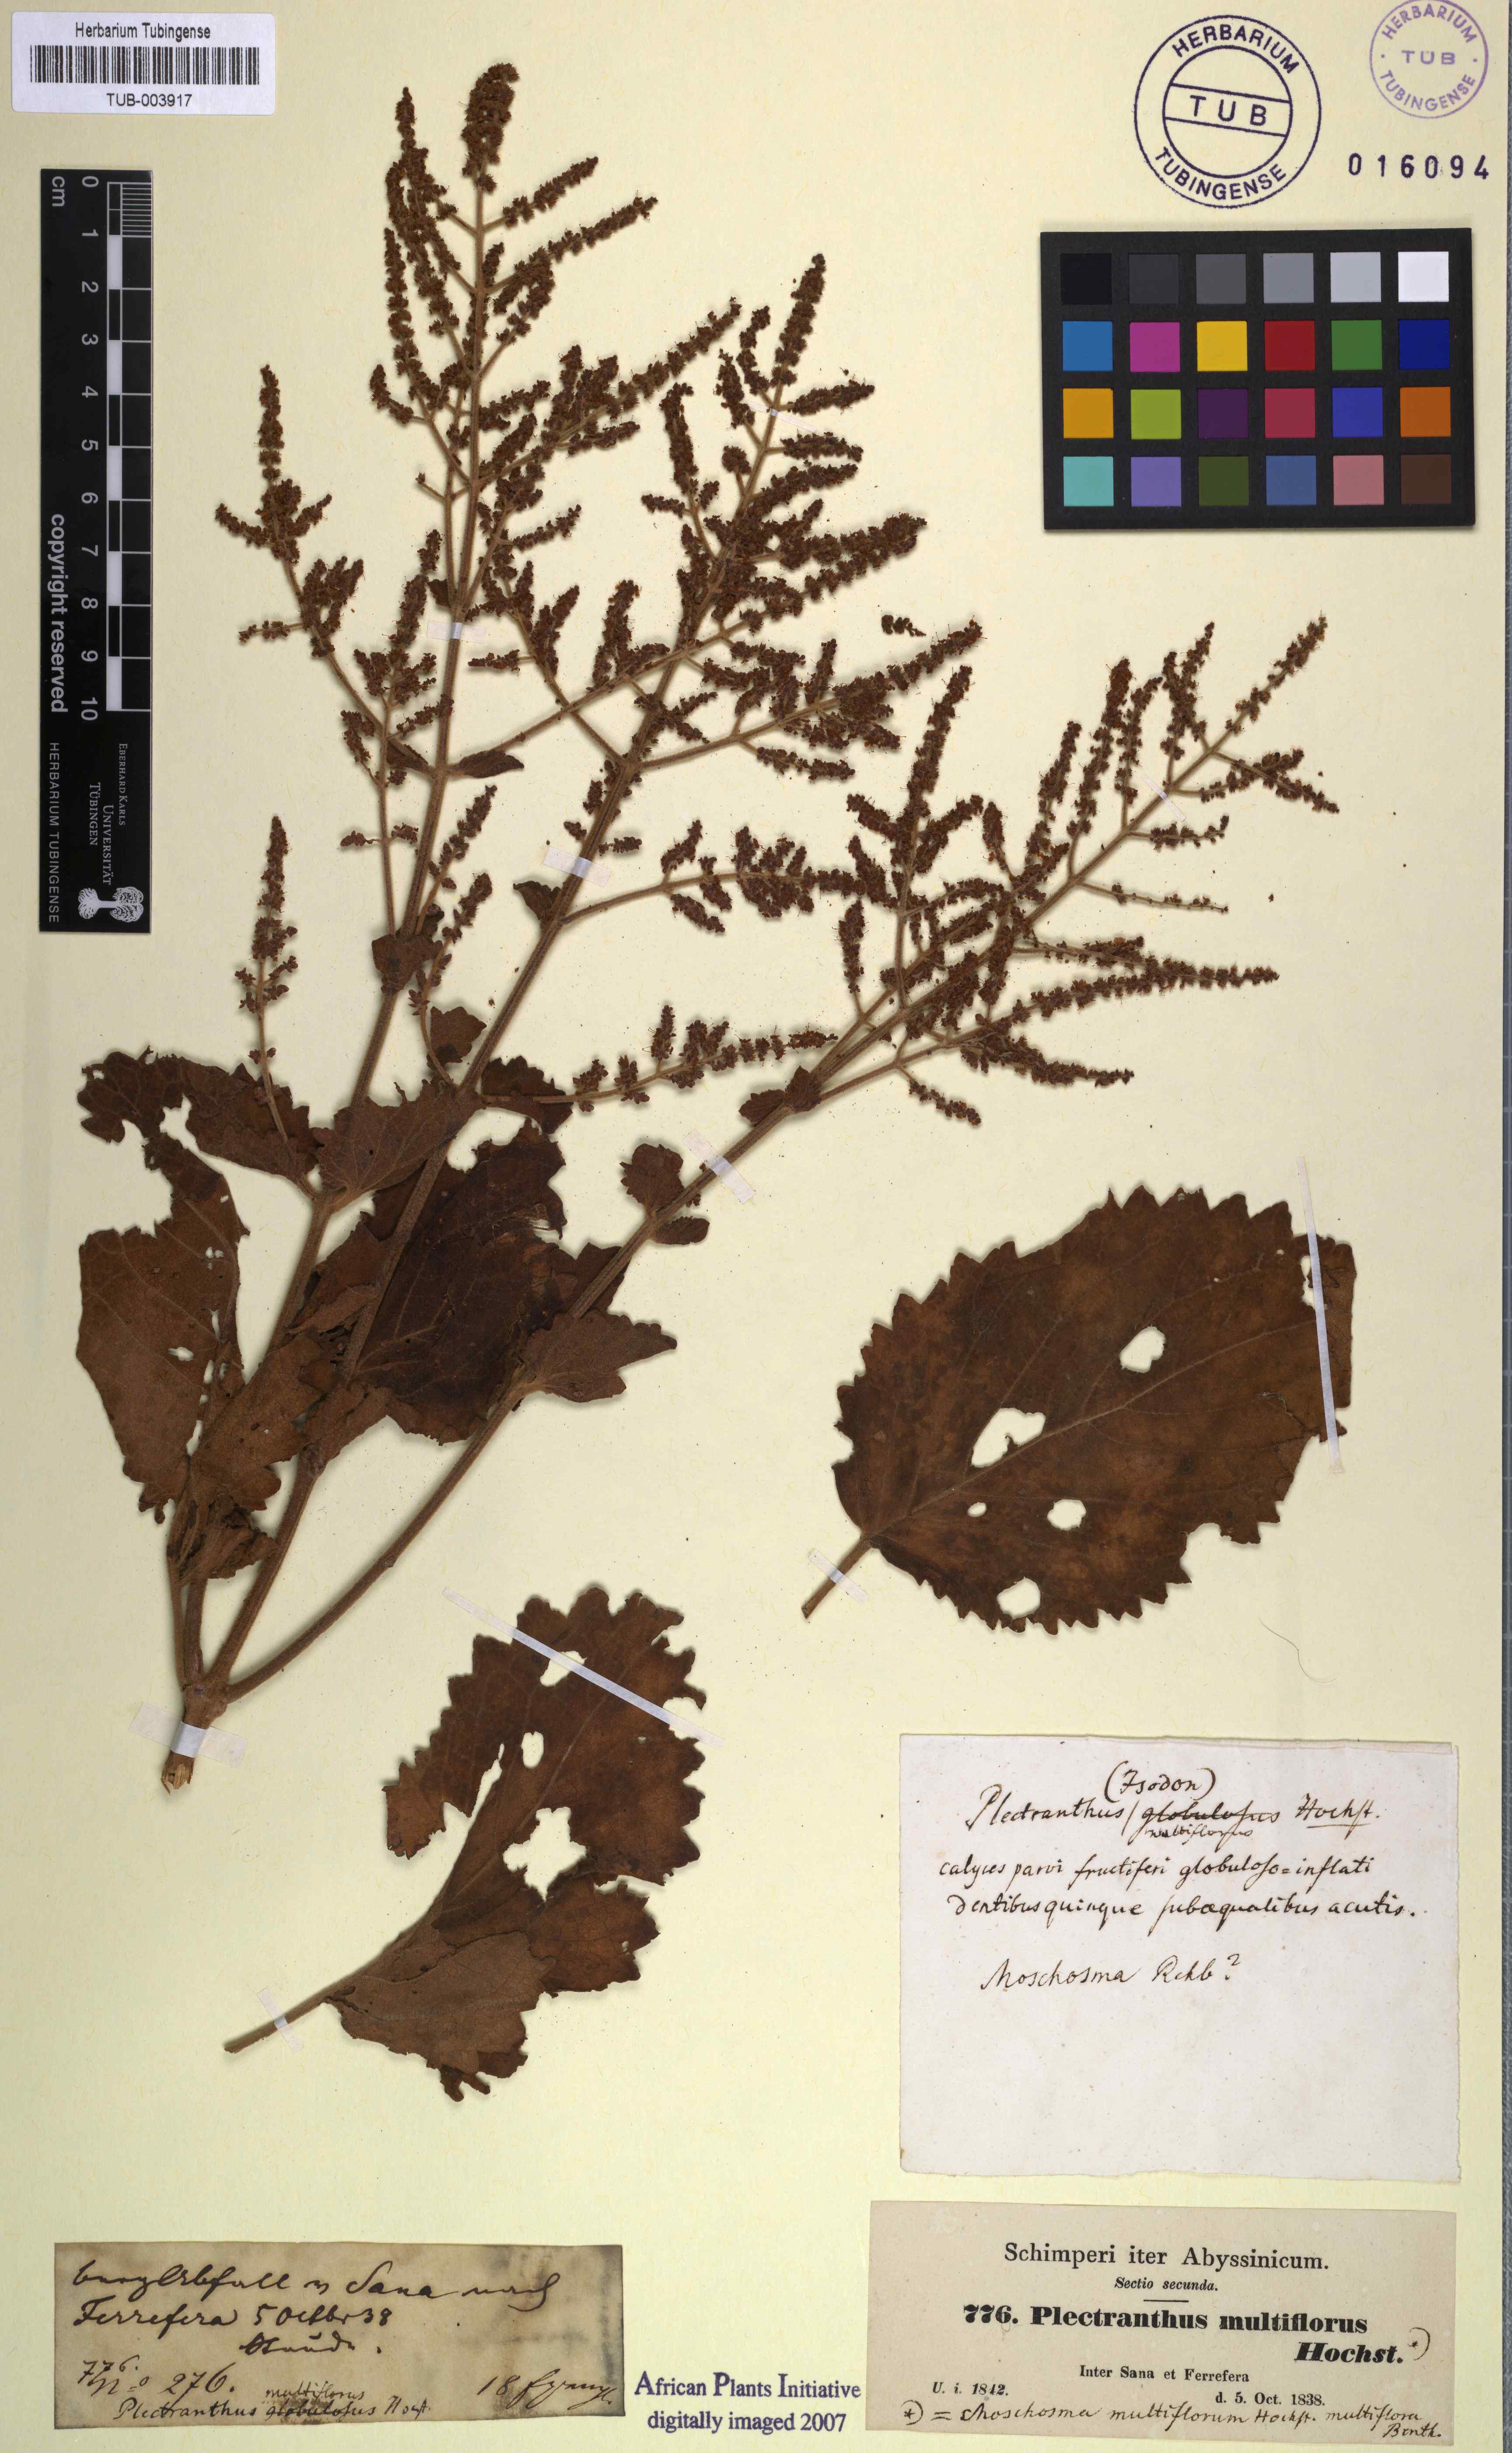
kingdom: Plantae
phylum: Tracheophyta
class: Magnoliopsida
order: Lamiales
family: Lamiaceae
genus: Tetradenia
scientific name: Tetradenia multiflora
